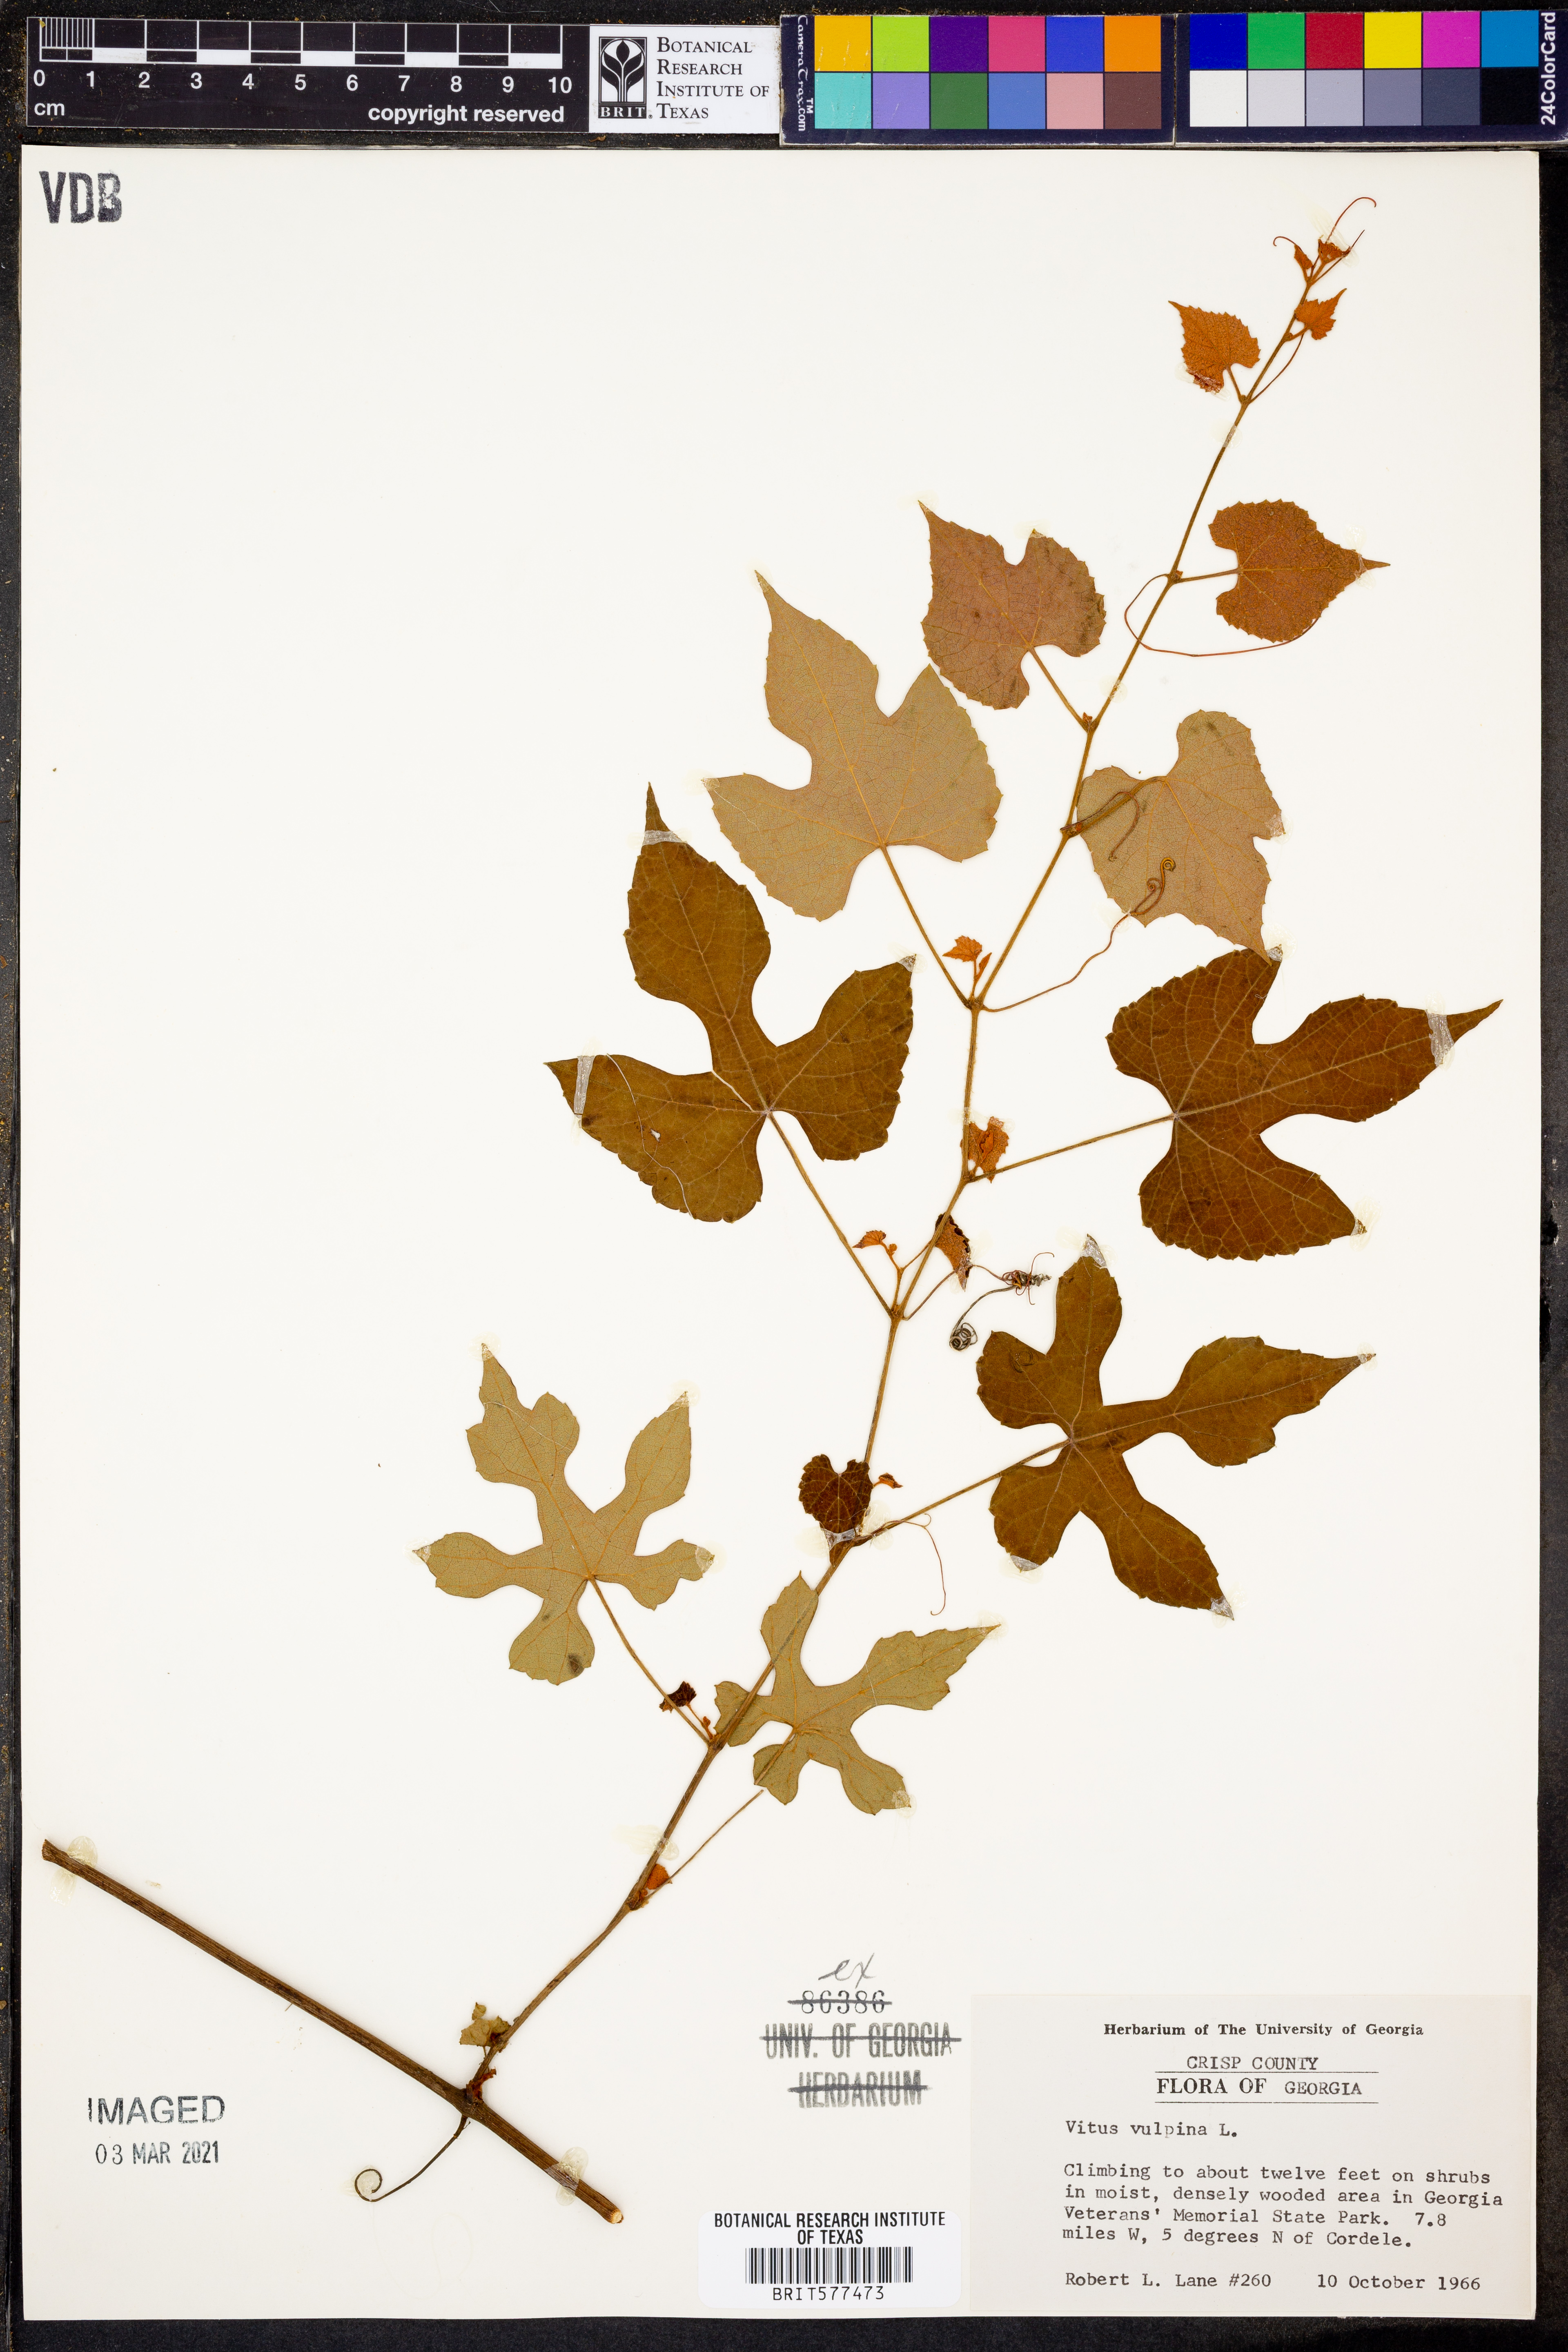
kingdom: Plantae
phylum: Tracheophyta
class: Magnoliopsida
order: Vitales
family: Vitaceae
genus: Vitis
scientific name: Vitis vulpina
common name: Frost grape
